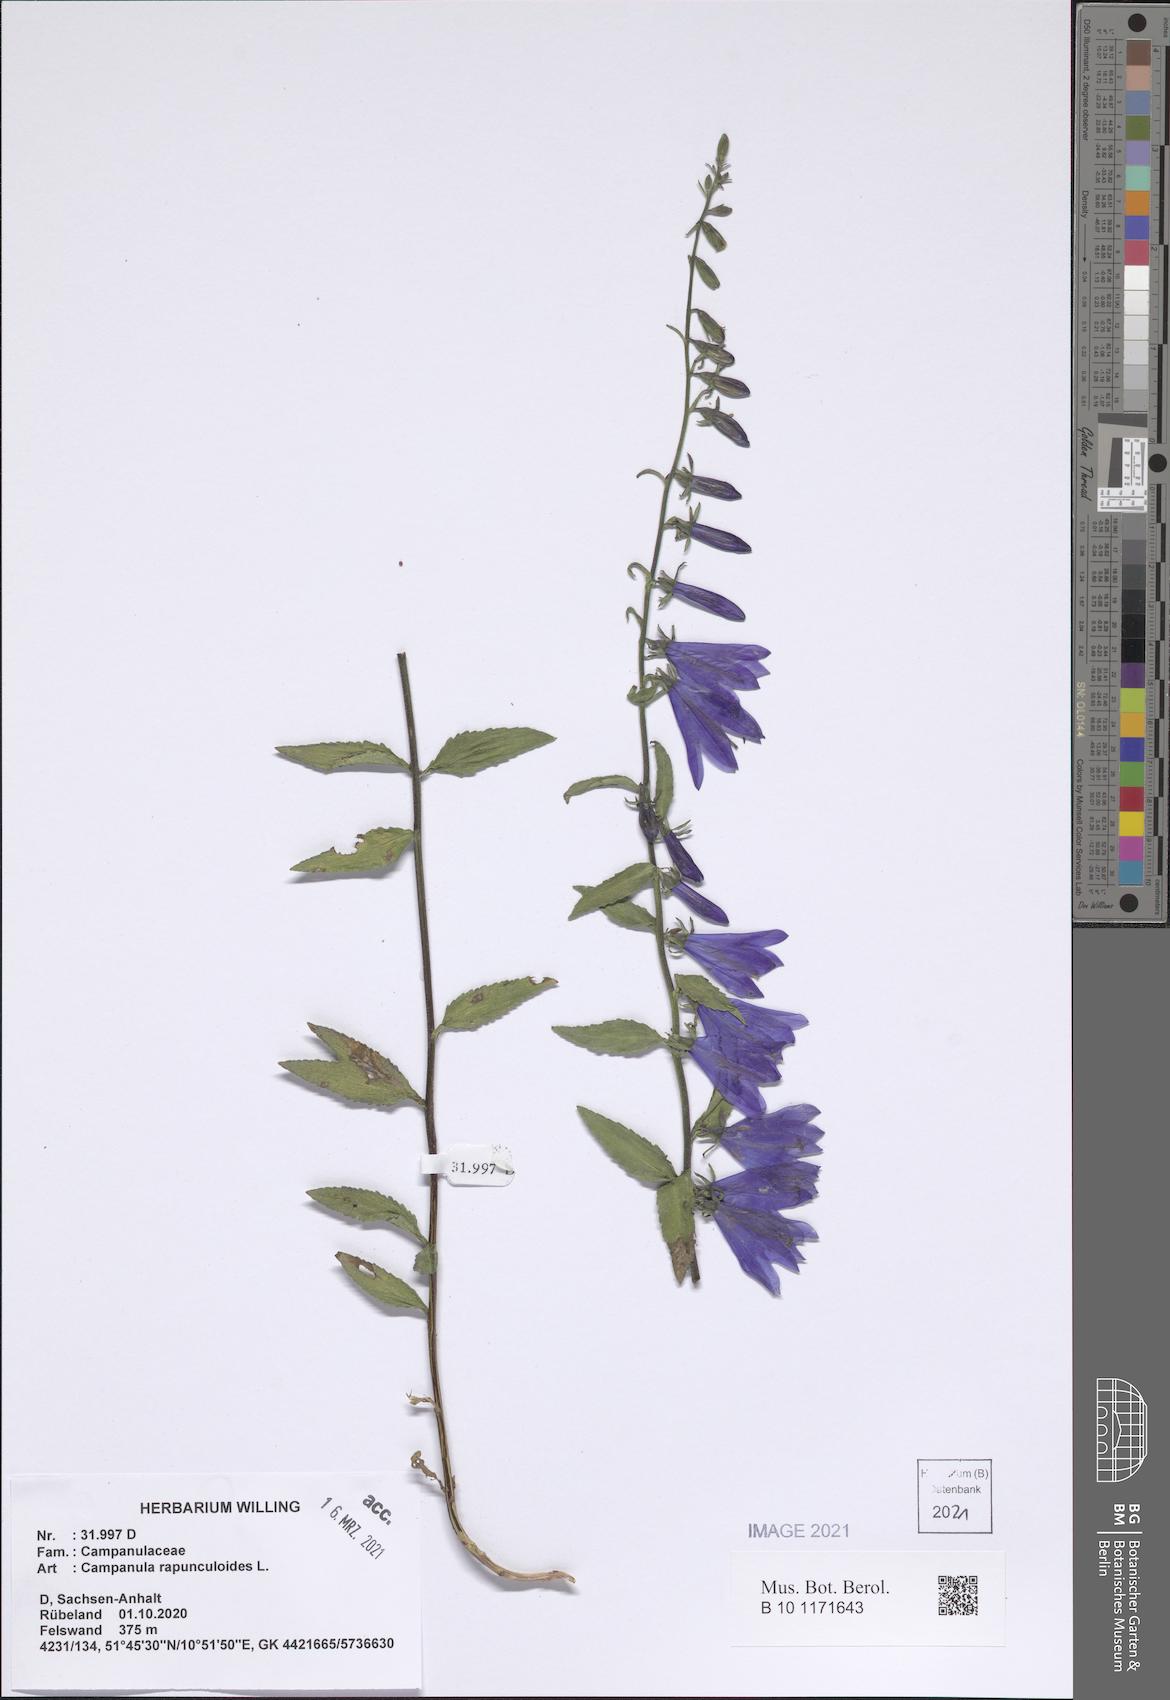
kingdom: Plantae
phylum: Tracheophyta
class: Magnoliopsida
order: Asterales
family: Campanulaceae
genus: Campanula
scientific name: Campanula rapunculoides
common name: Creeping bellflower
